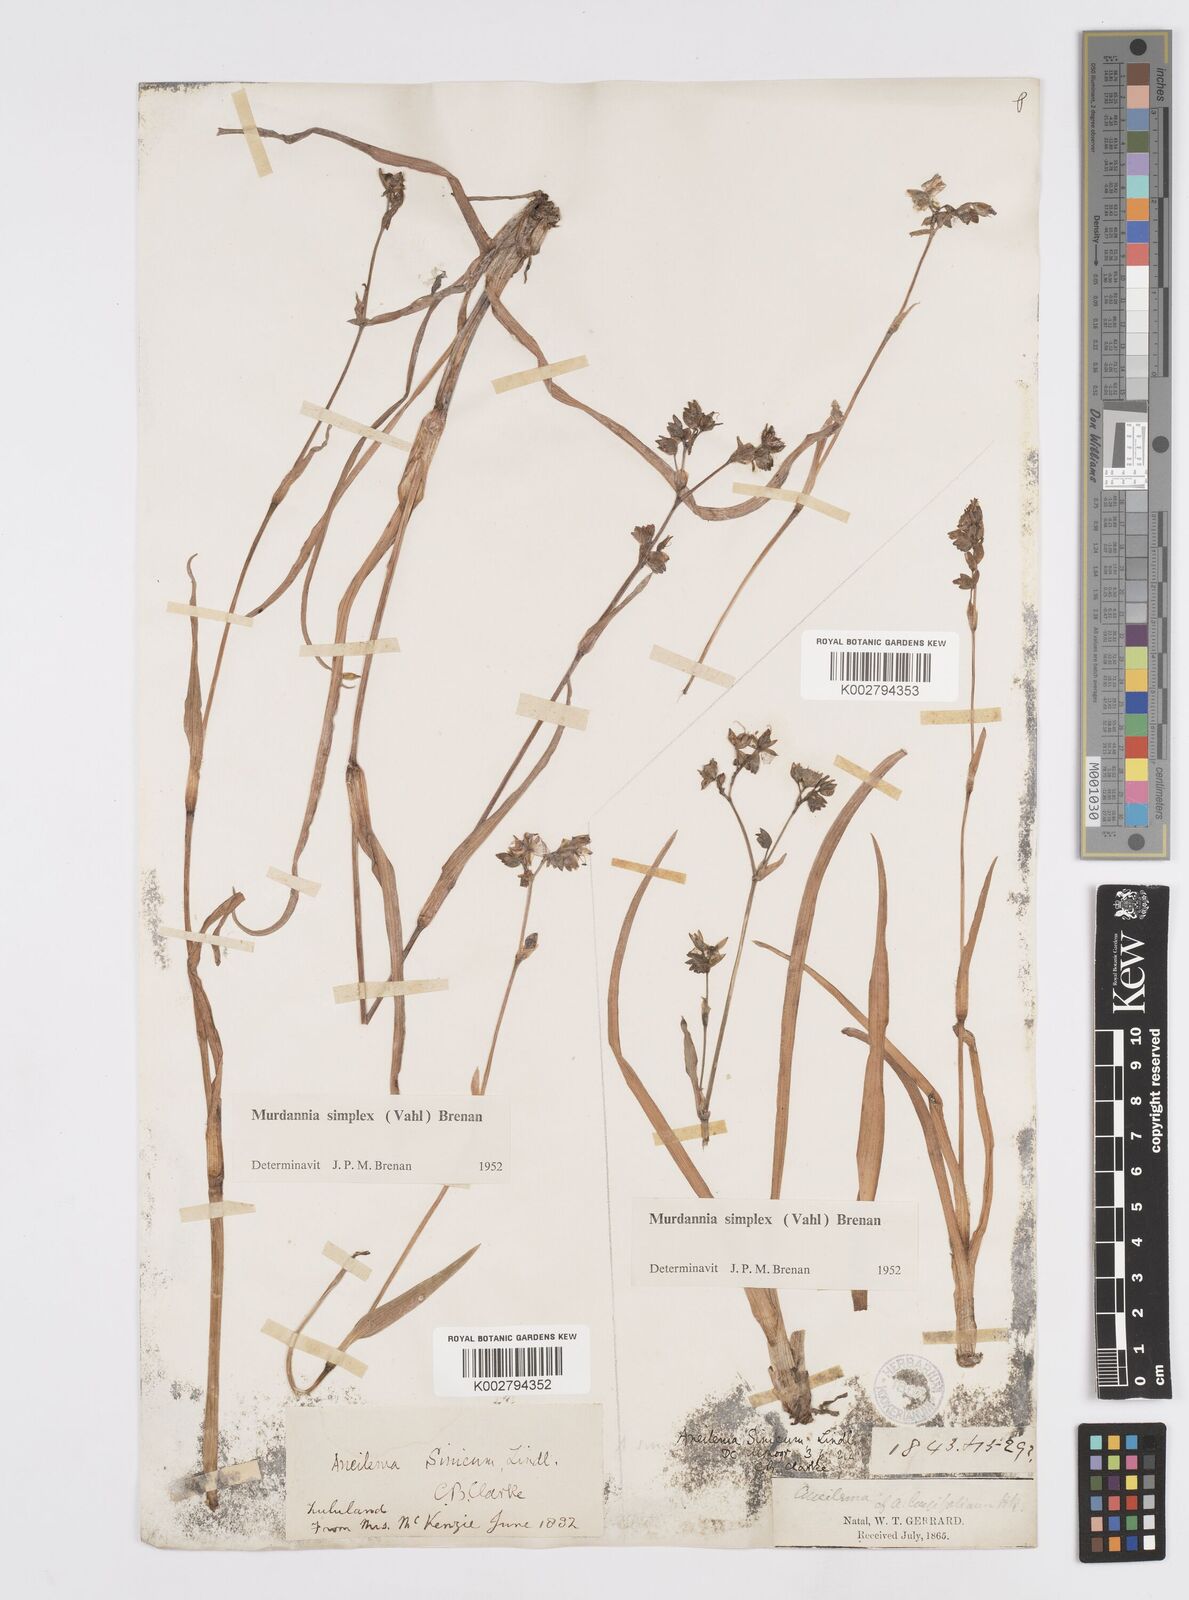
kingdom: Plantae
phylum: Tracheophyta
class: Liliopsida
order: Commelinales
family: Commelinaceae
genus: Murdannia
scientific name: Murdannia simplex
